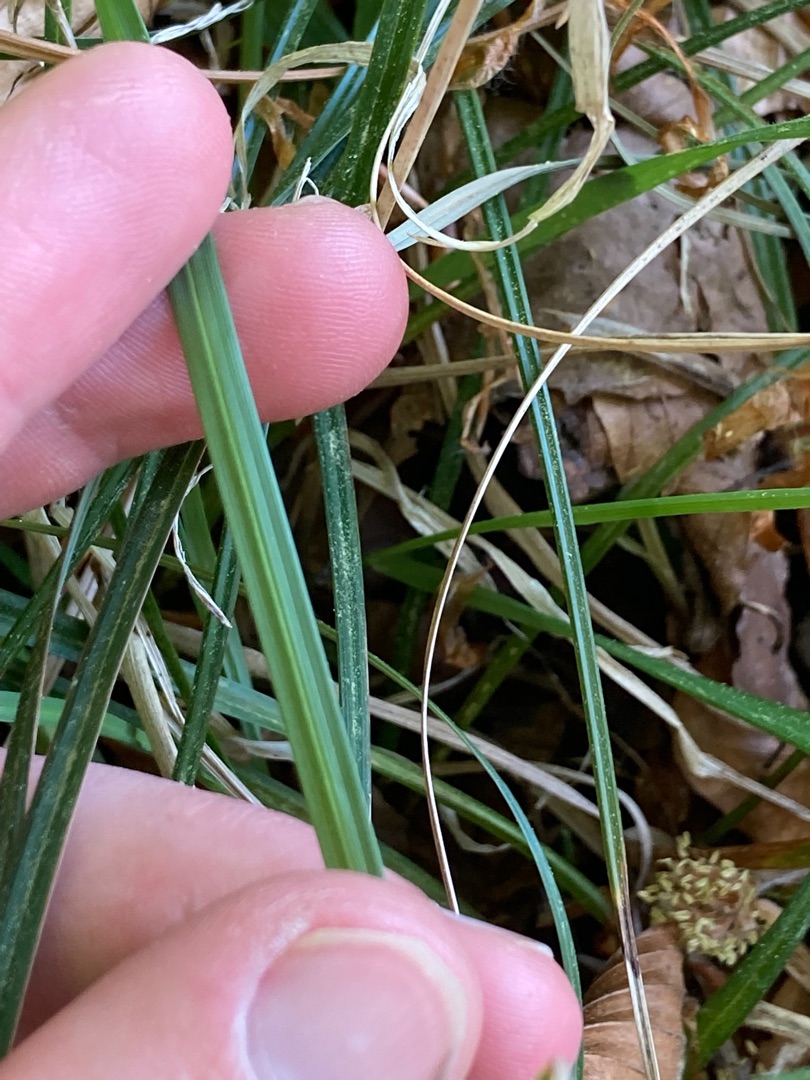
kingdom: Plantae
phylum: Tracheophyta
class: Liliopsida
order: Poales
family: Cyperaceae
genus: Carex
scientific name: Carex flacca
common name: Blågrøn star
